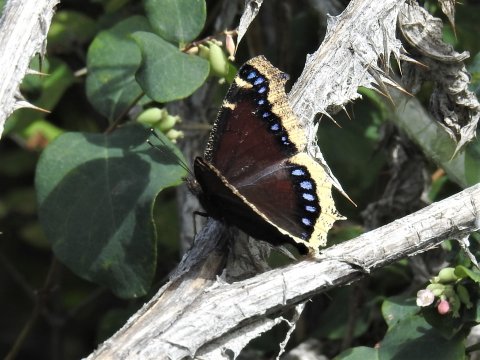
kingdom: Animalia
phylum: Arthropoda
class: Insecta
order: Lepidoptera
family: Nymphalidae
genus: Nymphalis
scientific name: Nymphalis antiopa
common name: Mourning Cloak
